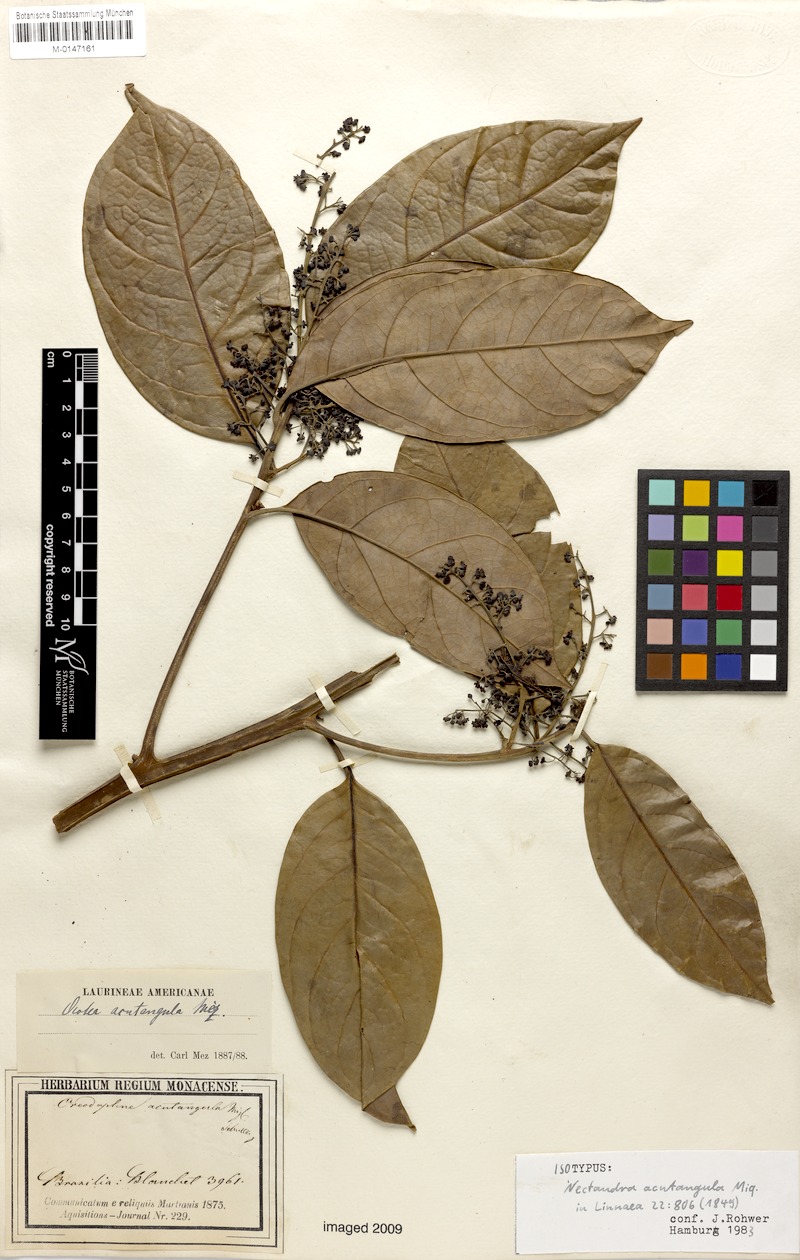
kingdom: Plantae
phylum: Tracheophyta
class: Magnoliopsida
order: Laurales
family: Lauraceae
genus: Ocotea
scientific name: Ocotea acutangula
